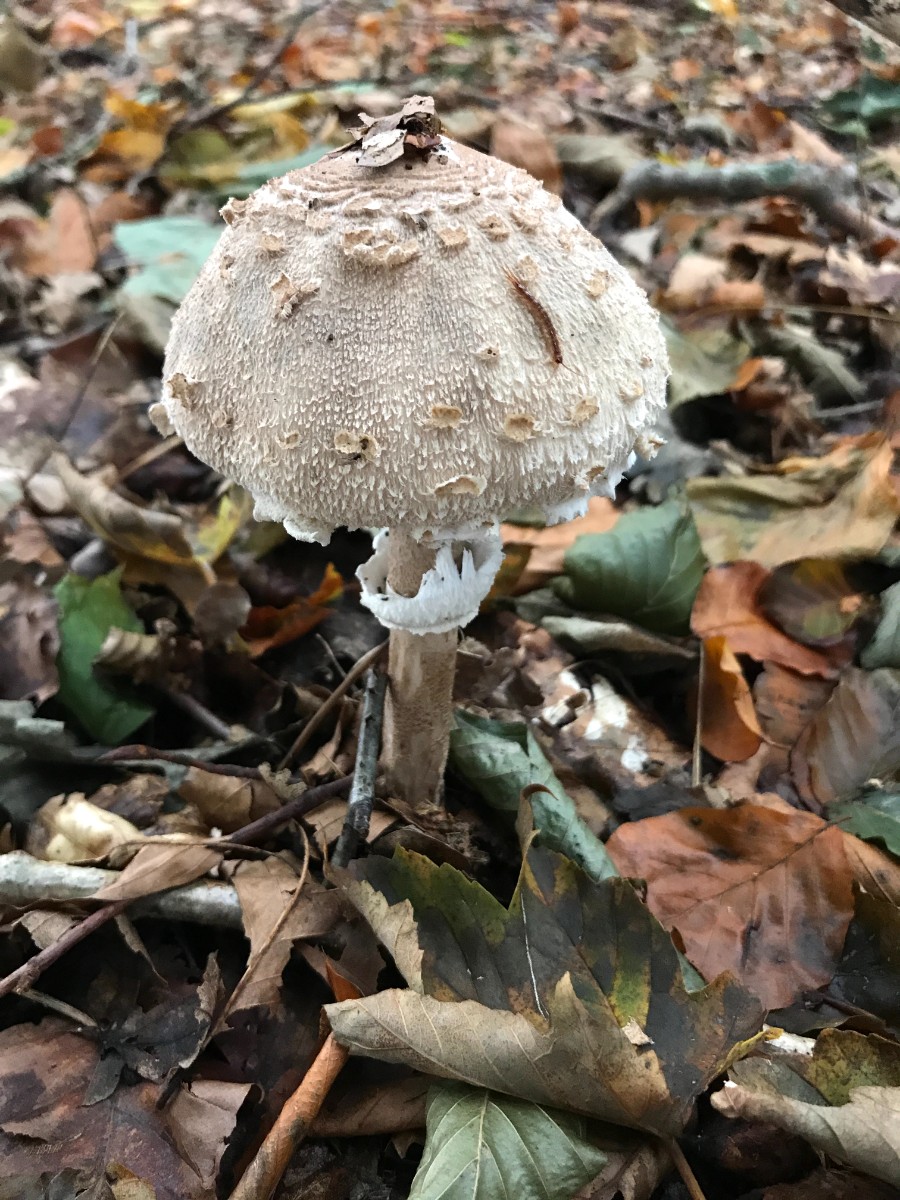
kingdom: Fungi
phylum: Basidiomycota
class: Agaricomycetes
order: Agaricales
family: Agaricaceae
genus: Macrolepiota
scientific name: Macrolepiota mastoidea
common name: puklet kæmpeparasolhat
